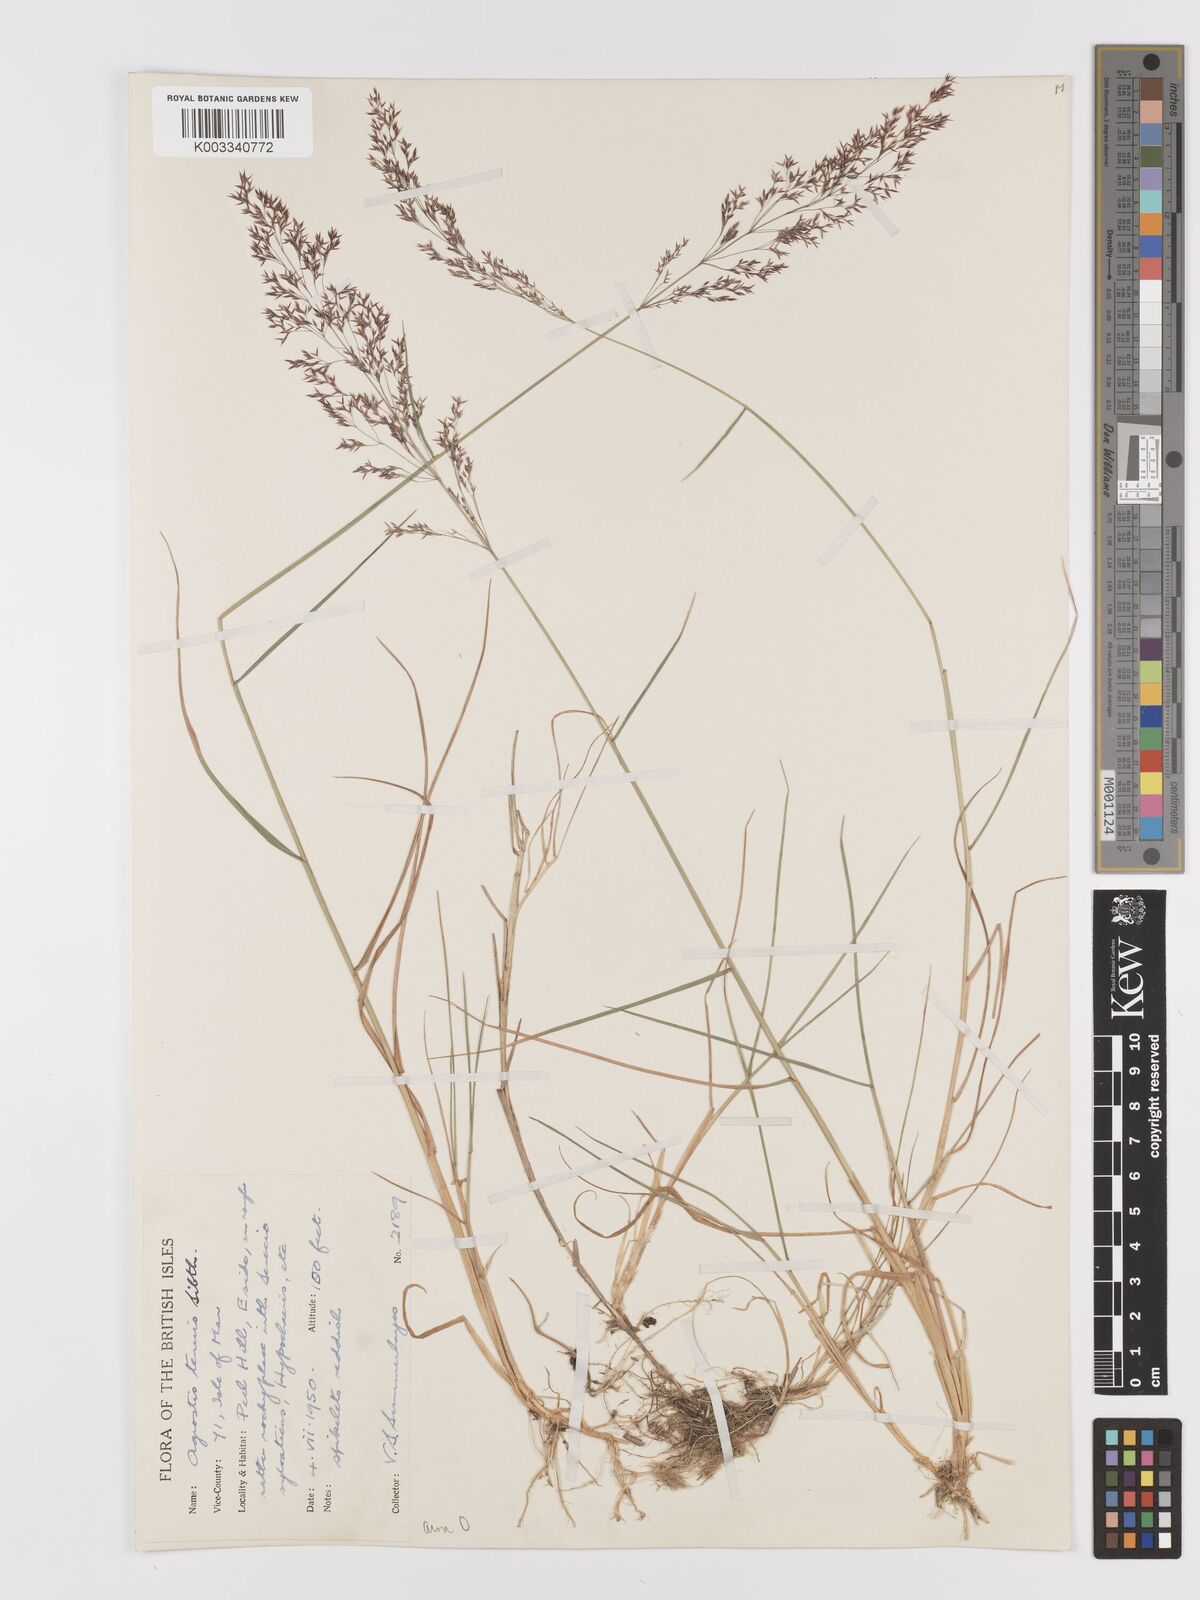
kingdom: Plantae
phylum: Tracheophyta
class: Liliopsida
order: Poales
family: Poaceae
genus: Agrostis
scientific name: Agrostis capillaris
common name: Colonial bentgrass
